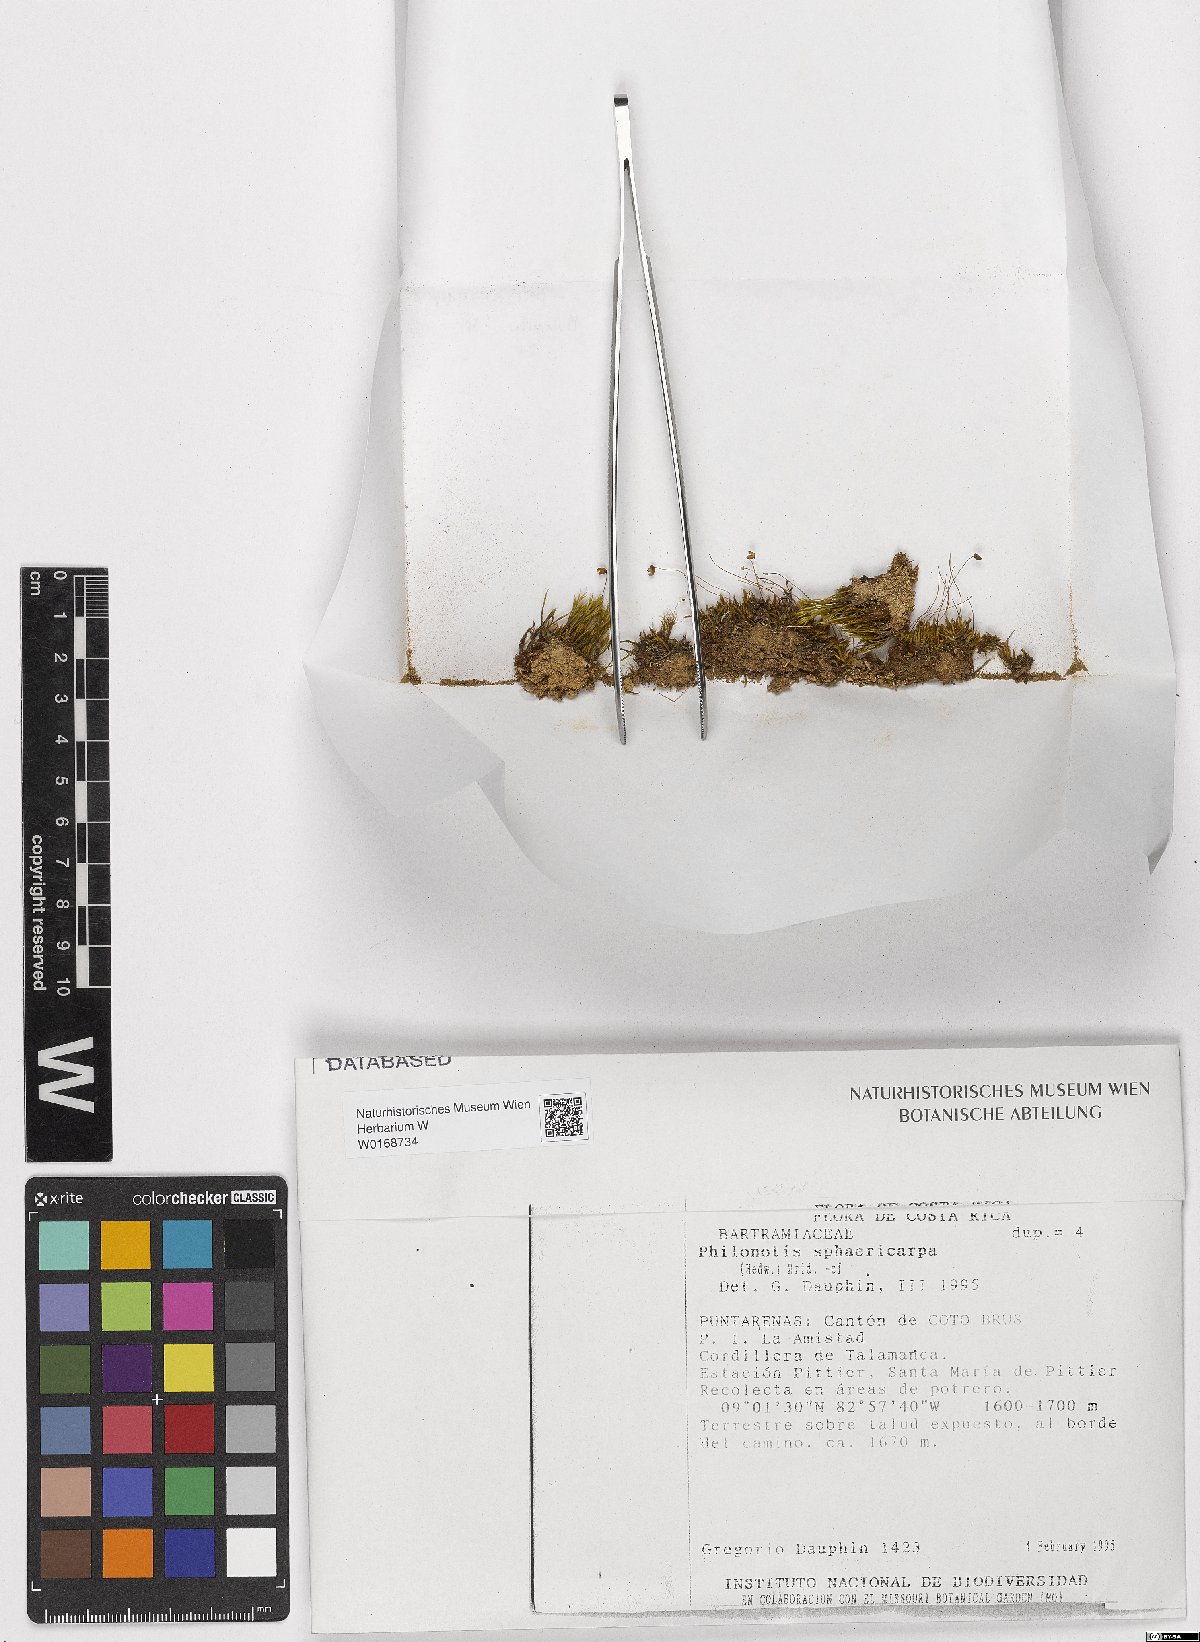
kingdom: Plantae
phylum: Bryophyta
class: Bryopsida
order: Bartramiales
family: Bartramiaceae
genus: Philonotis
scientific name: Philonotis sphaericarpa
